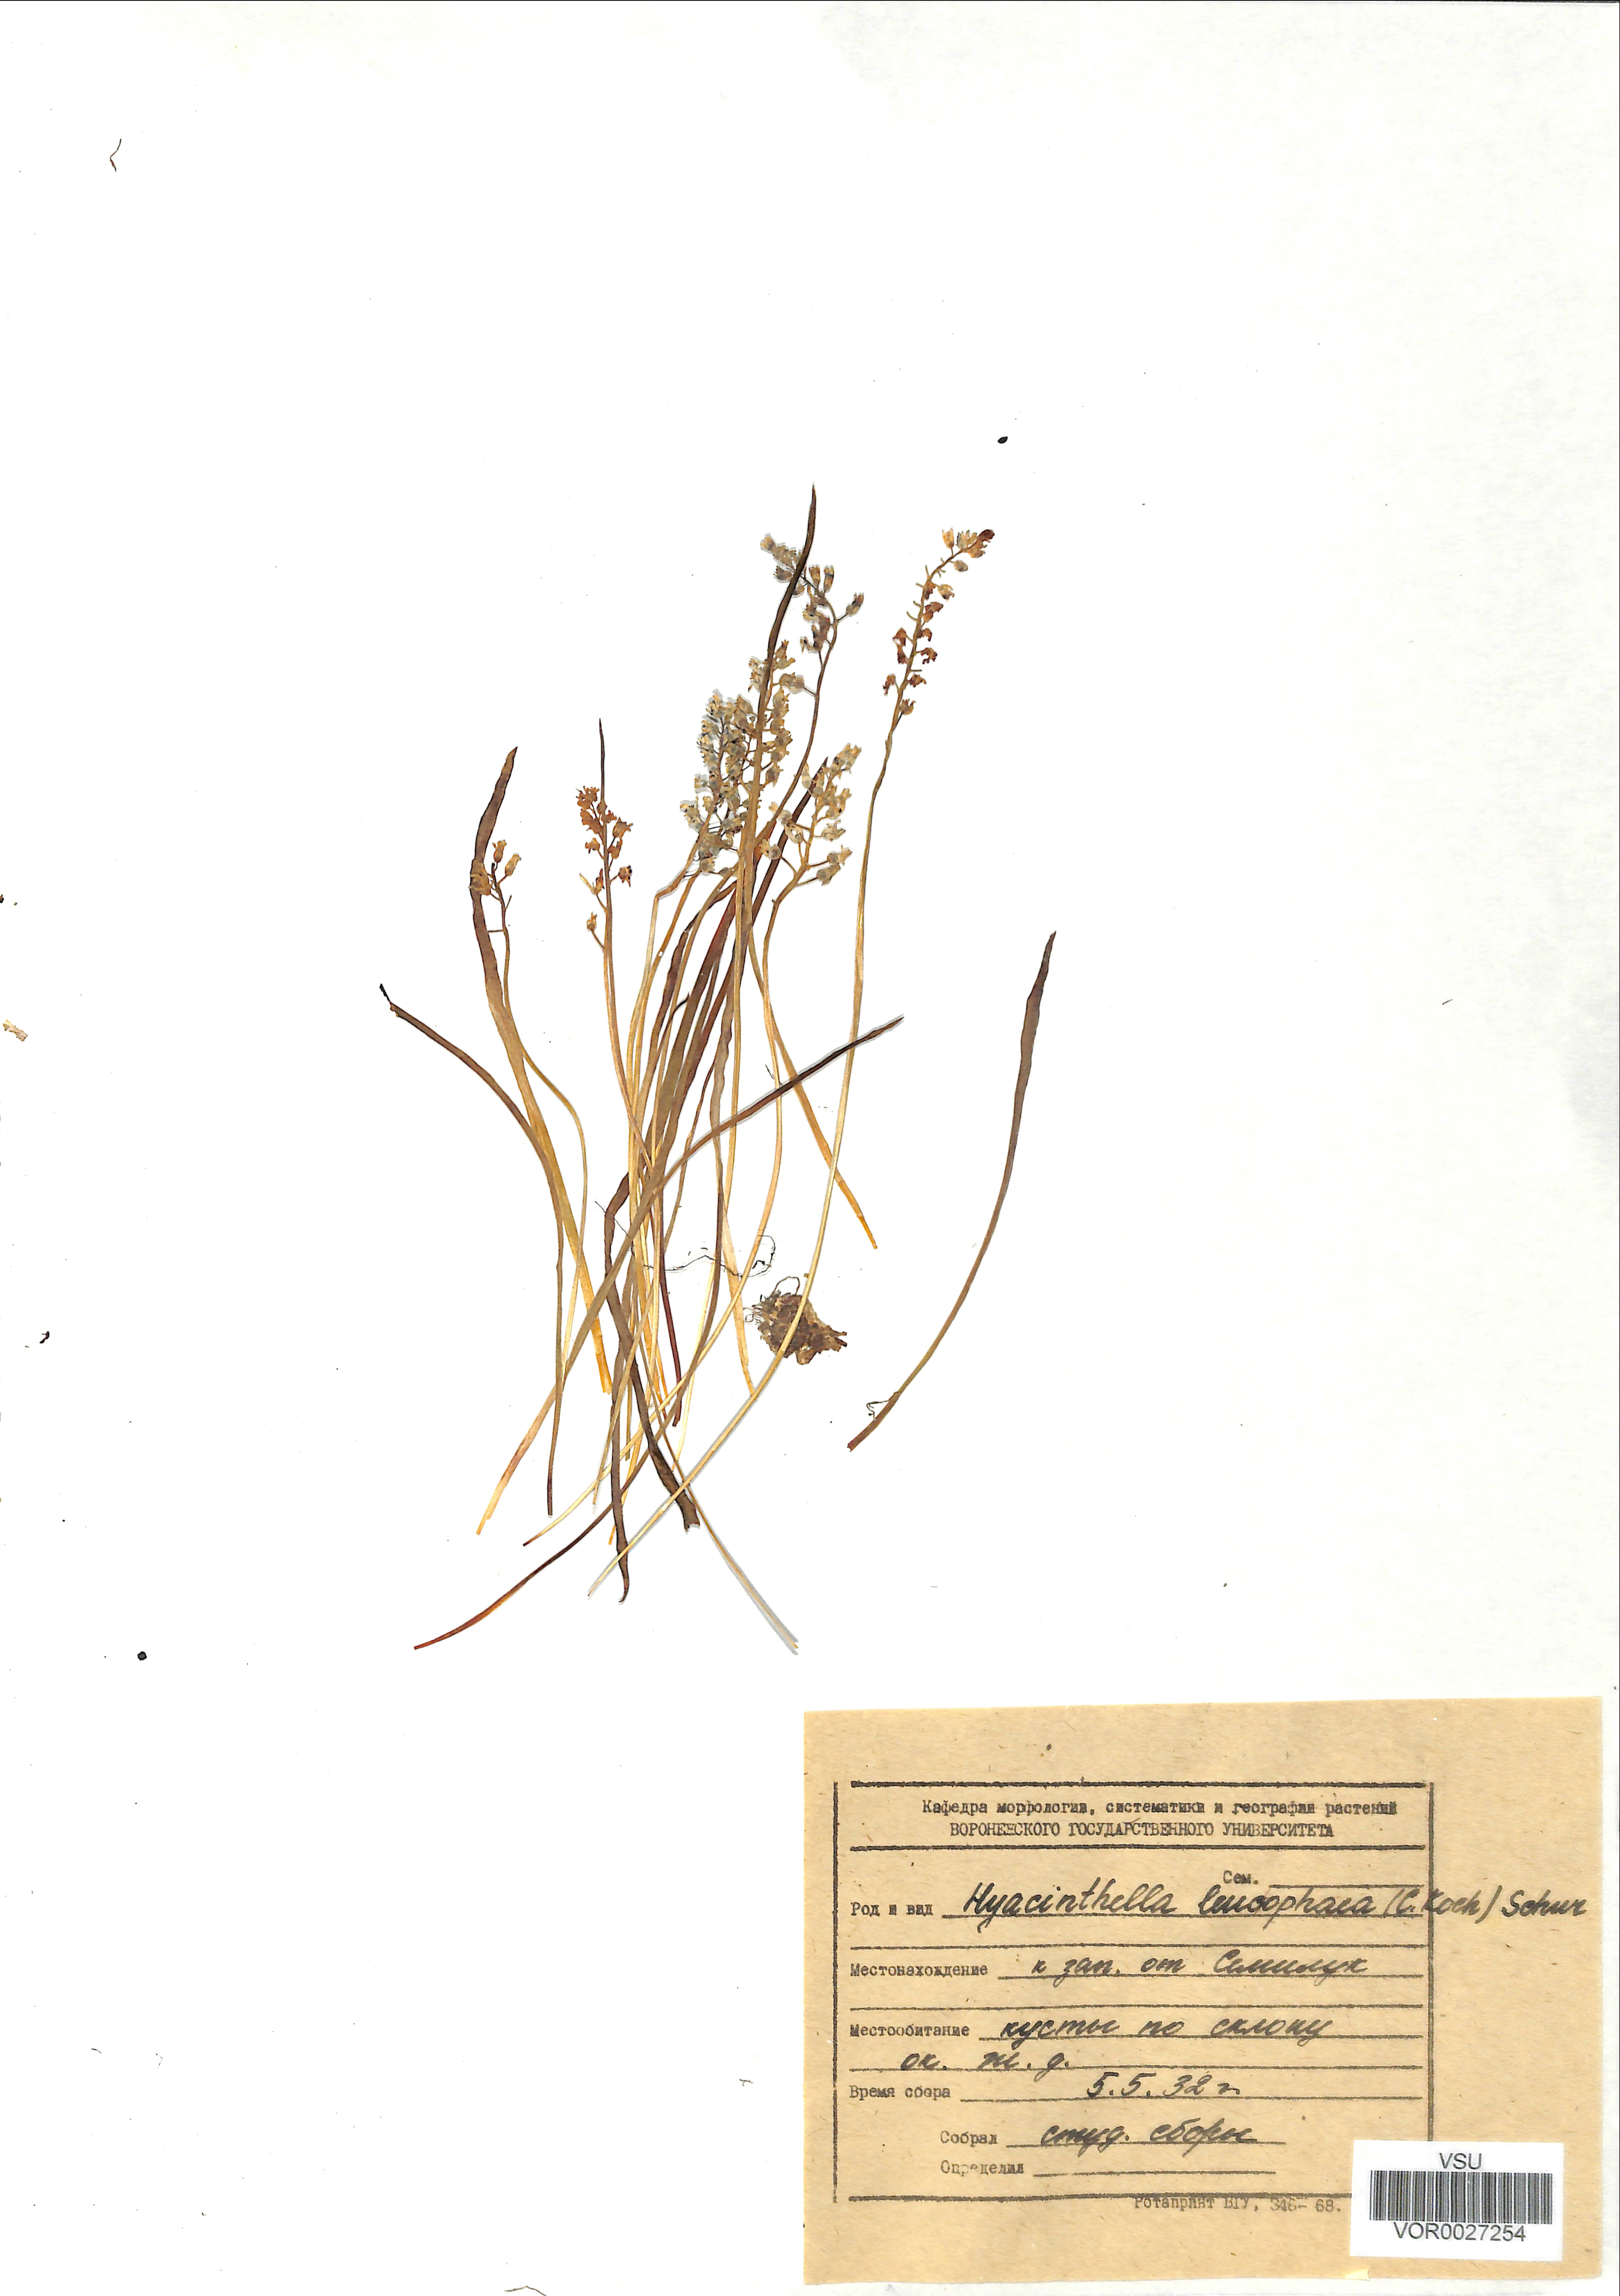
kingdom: Plantae
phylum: Tracheophyta
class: Liliopsida
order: Asparagales
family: Asparagaceae
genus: Hyacinthella
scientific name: Hyacinthella leucophaea
